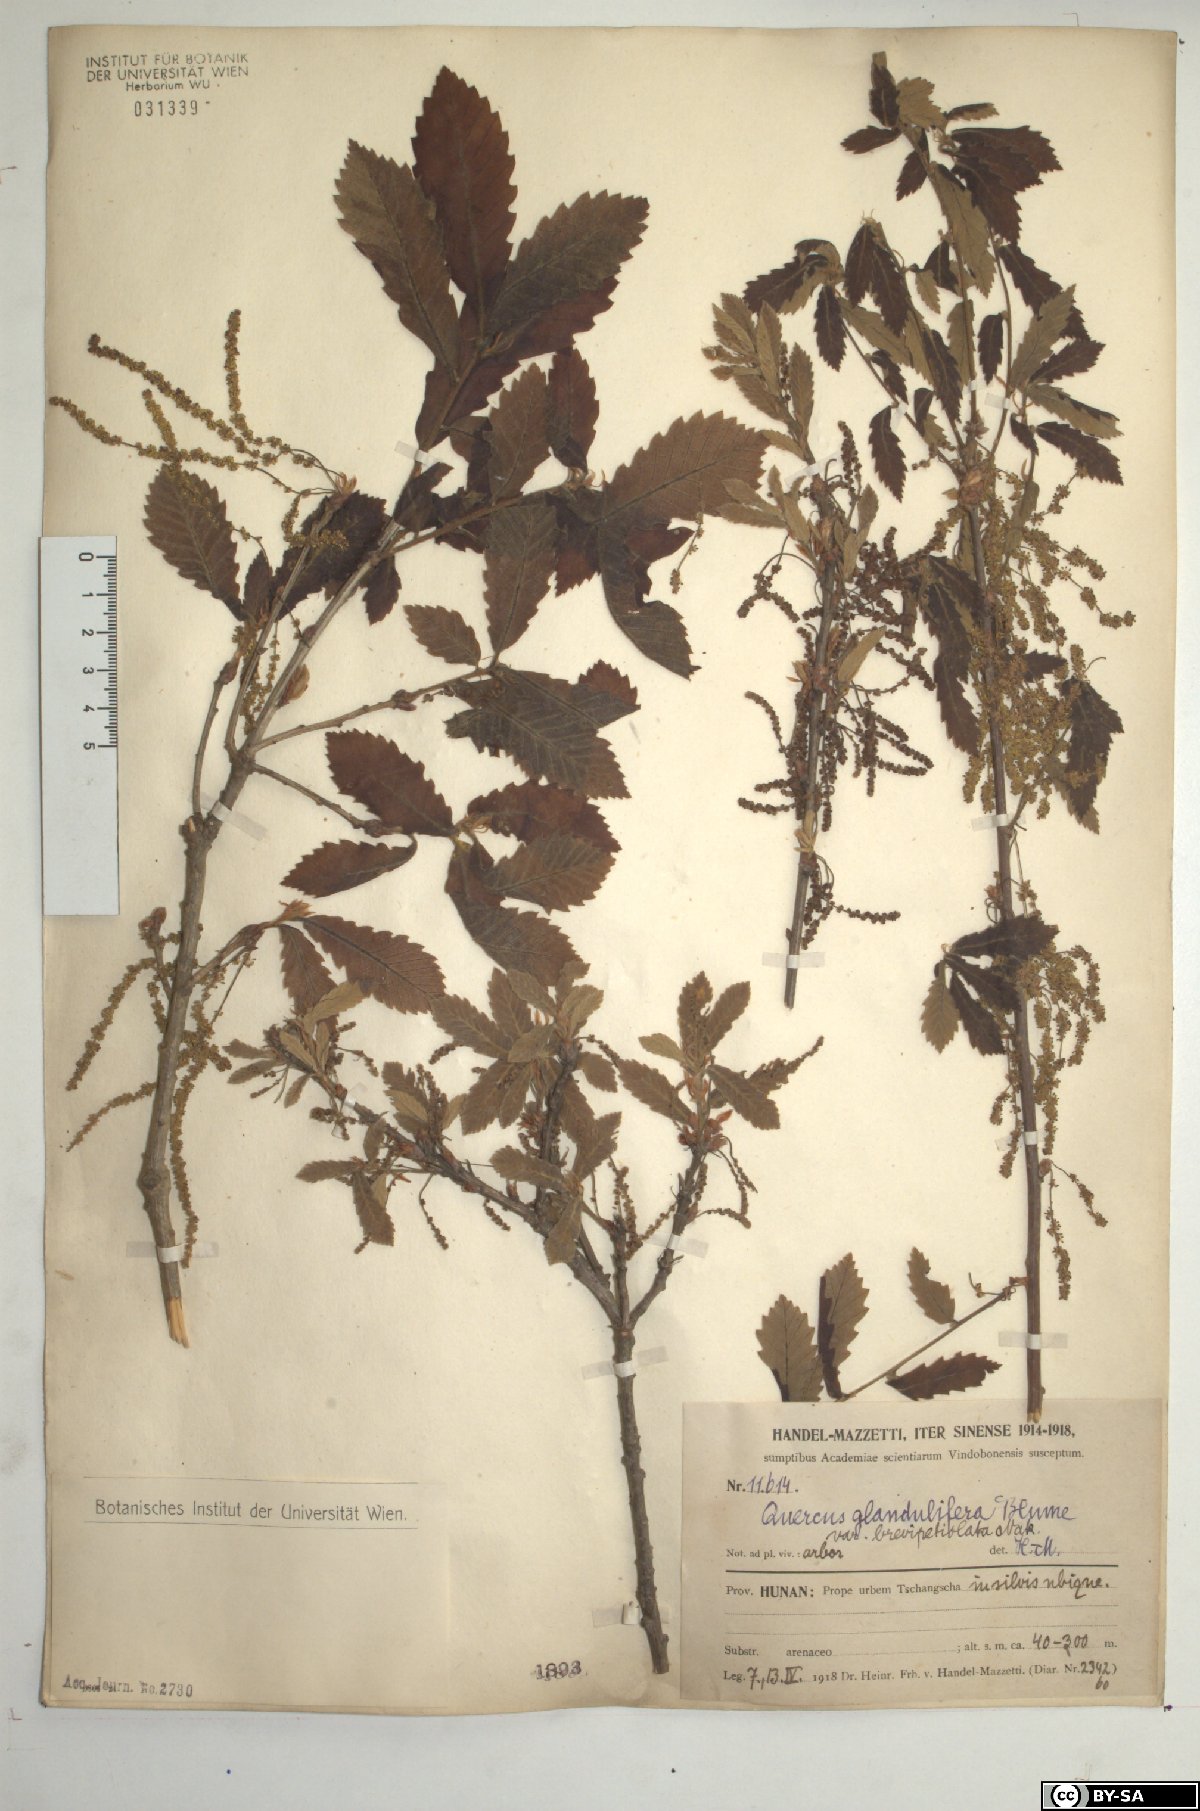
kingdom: Plantae
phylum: Tracheophyta
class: Magnoliopsida
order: Fagales
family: Fagaceae
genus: Quercus
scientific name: Quercus serrata
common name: Bao li
